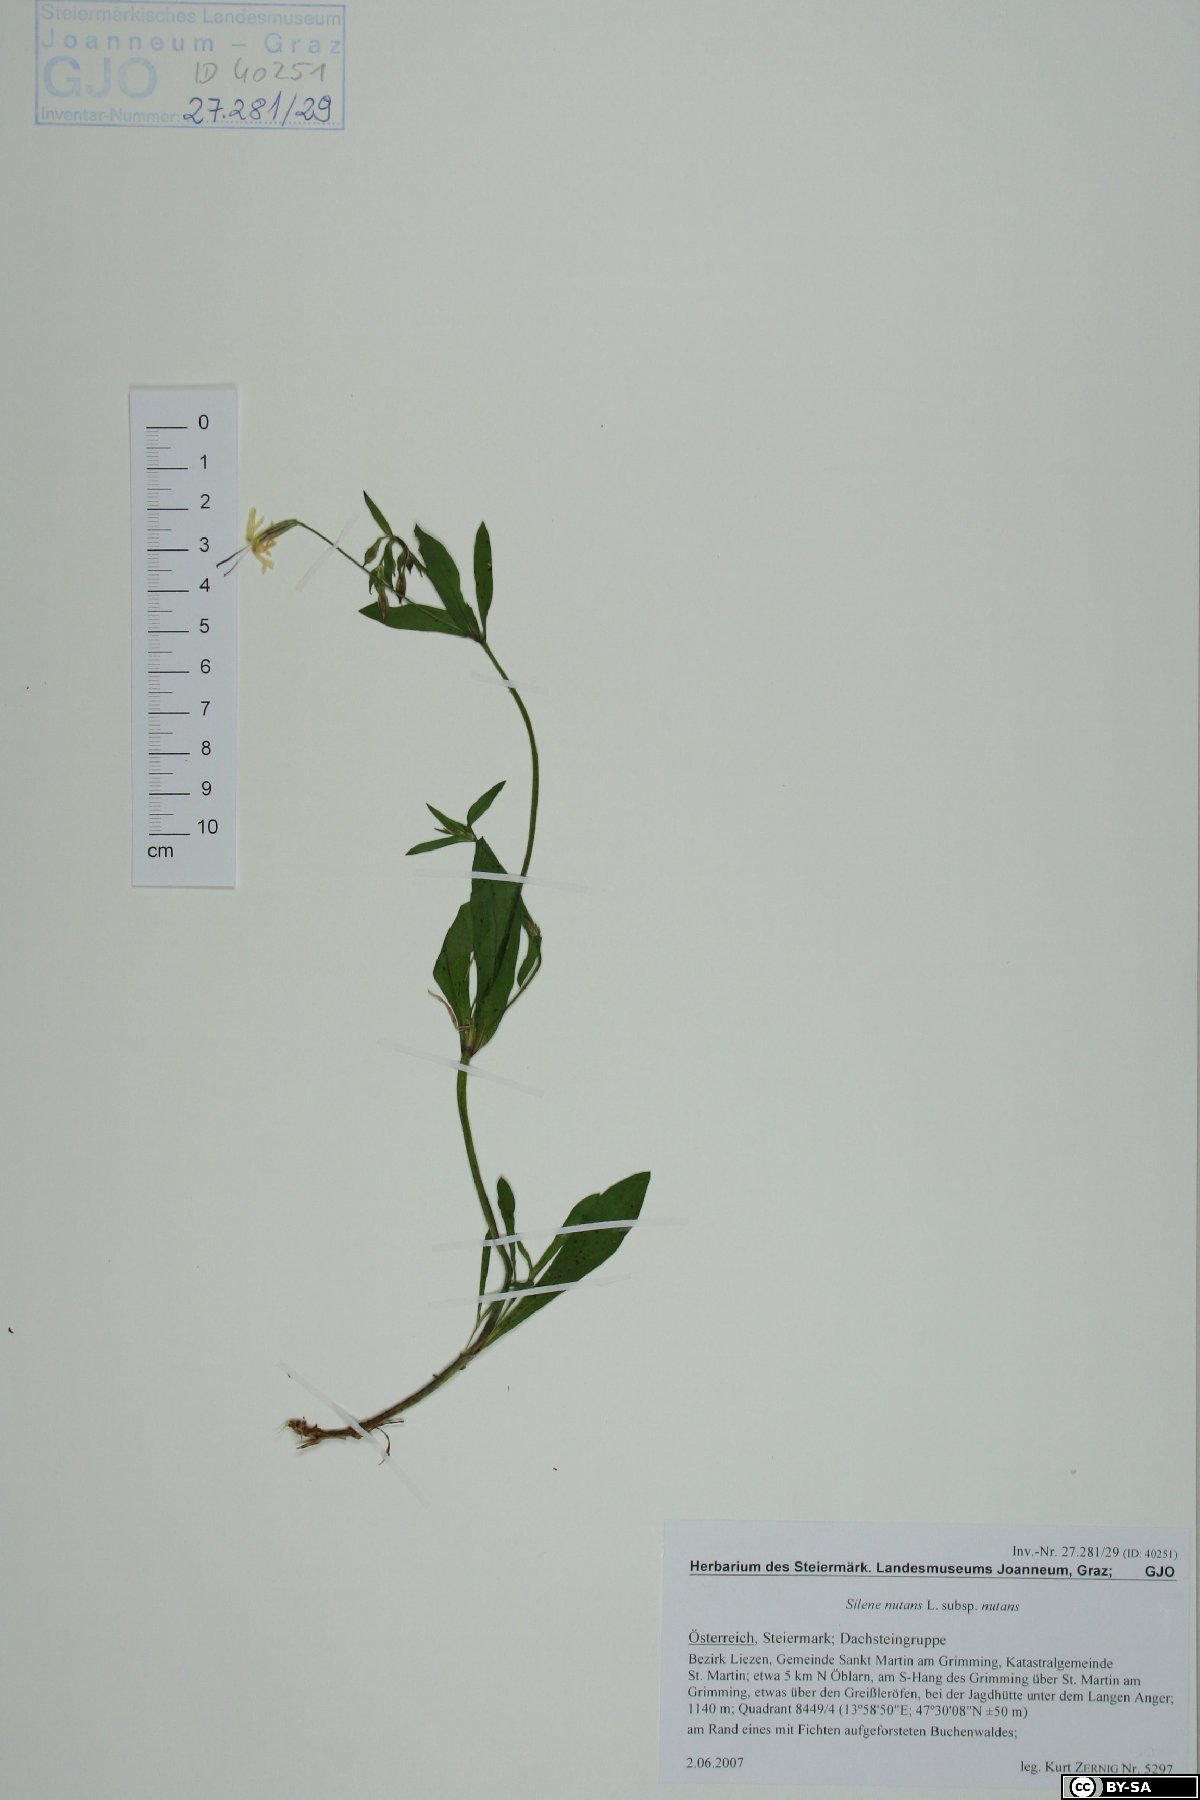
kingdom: Plantae
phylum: Tracheophyta
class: Magnoliopsida
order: Caryophyllales
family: Caryophyllaceae
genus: Silene
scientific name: Silene nutans
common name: Nottingham catchfly
